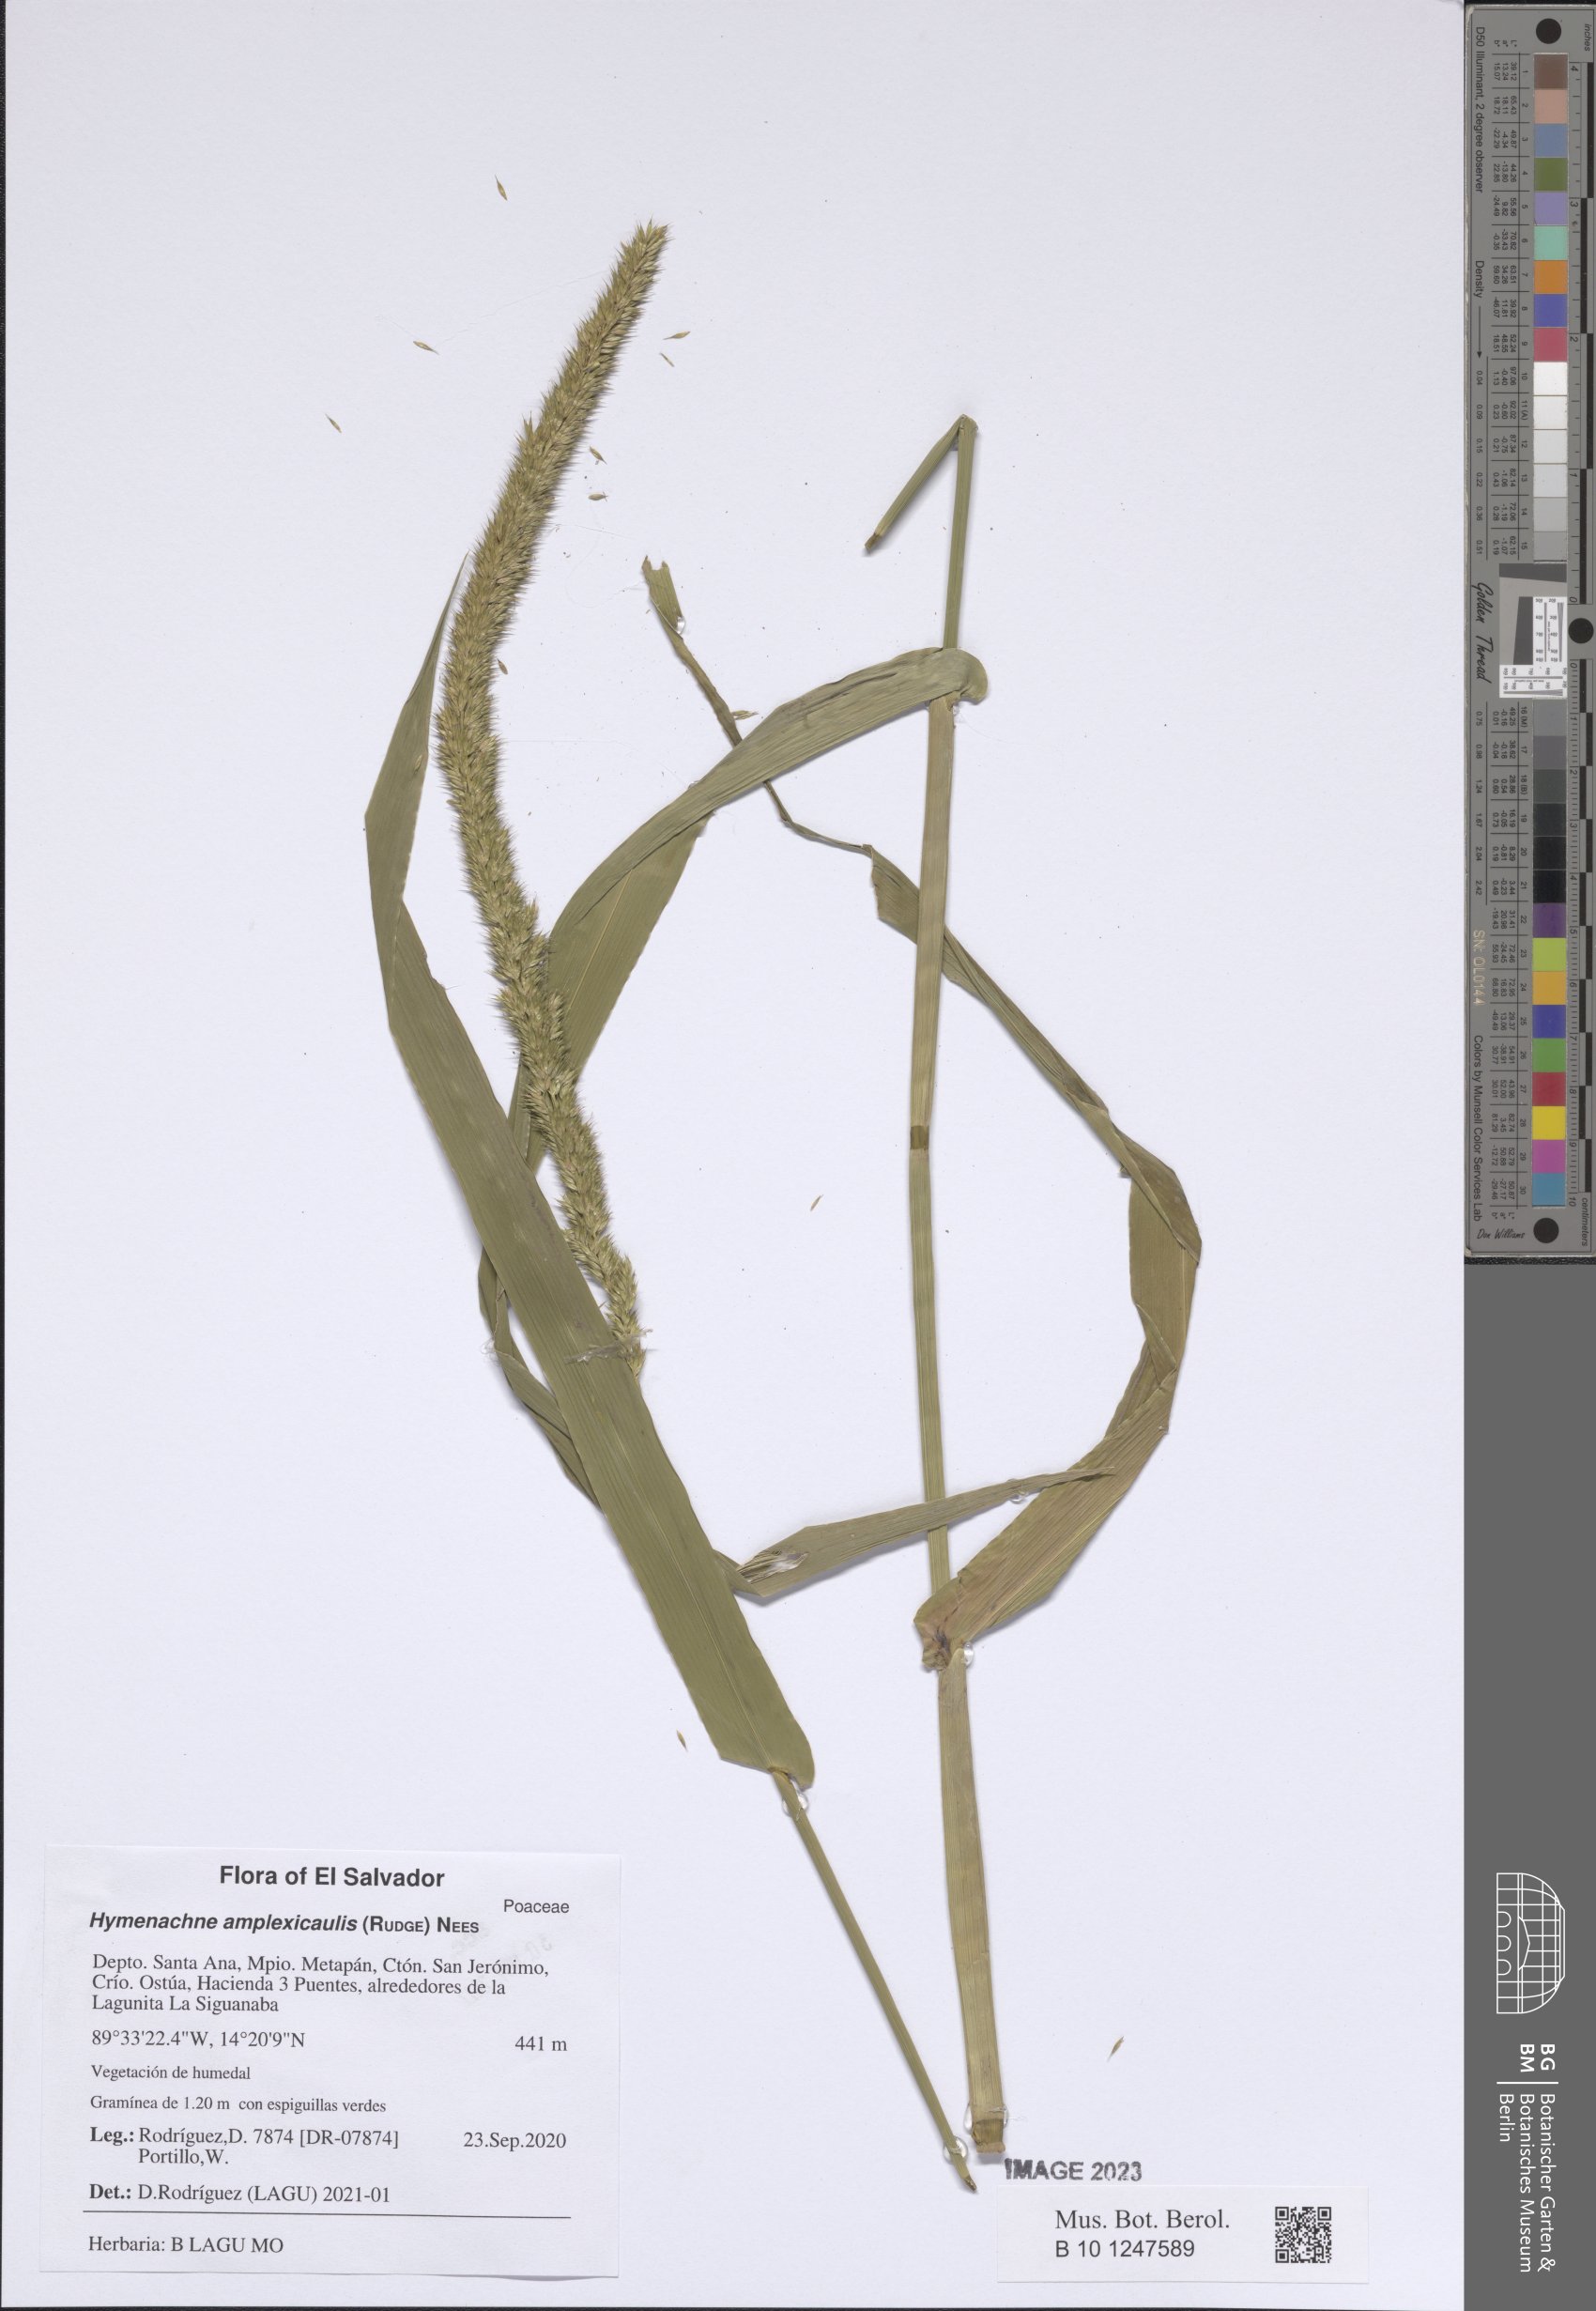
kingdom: Plantae
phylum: Tracheophyta
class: Liliopsida
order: Poales
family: Poaceae
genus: Hymenachne
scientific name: Hymenachne amplexicaulis
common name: Olive hymenachne
